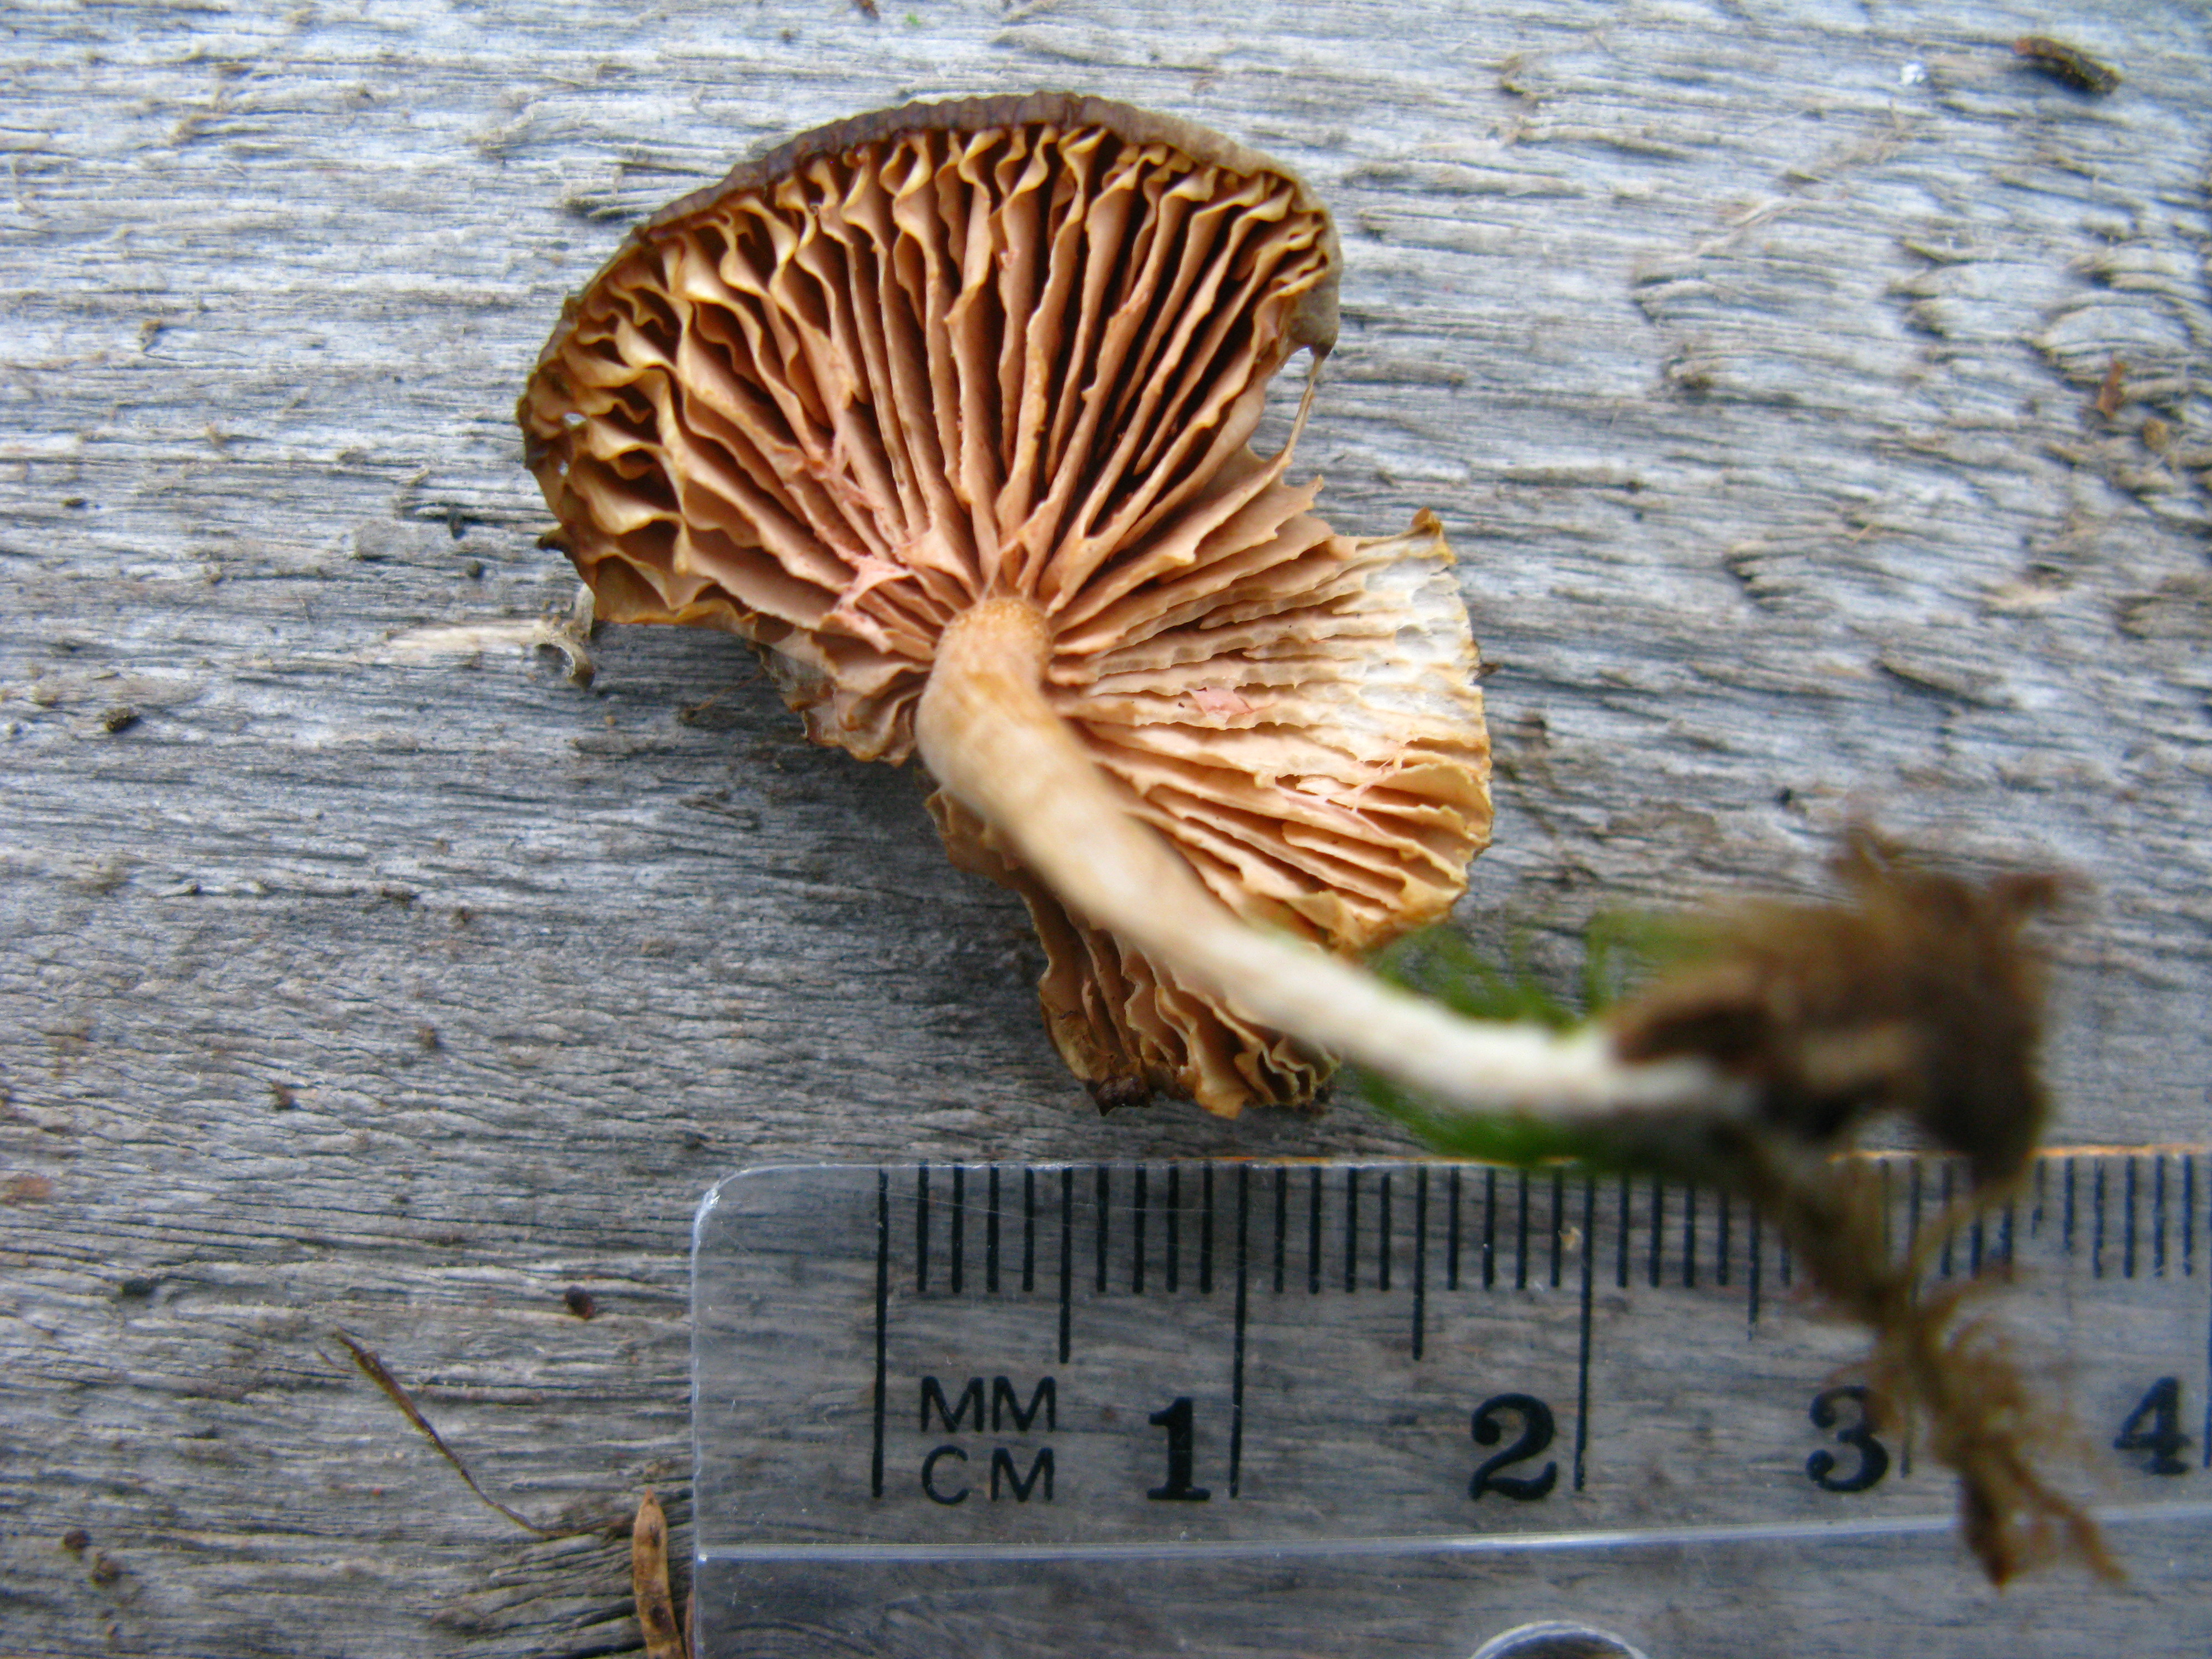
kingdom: Fungi
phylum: Basidiomycota
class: Agaricomycetes
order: Agaricales
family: Entolomataceae
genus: Entocybe
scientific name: Entocybe vinacea
